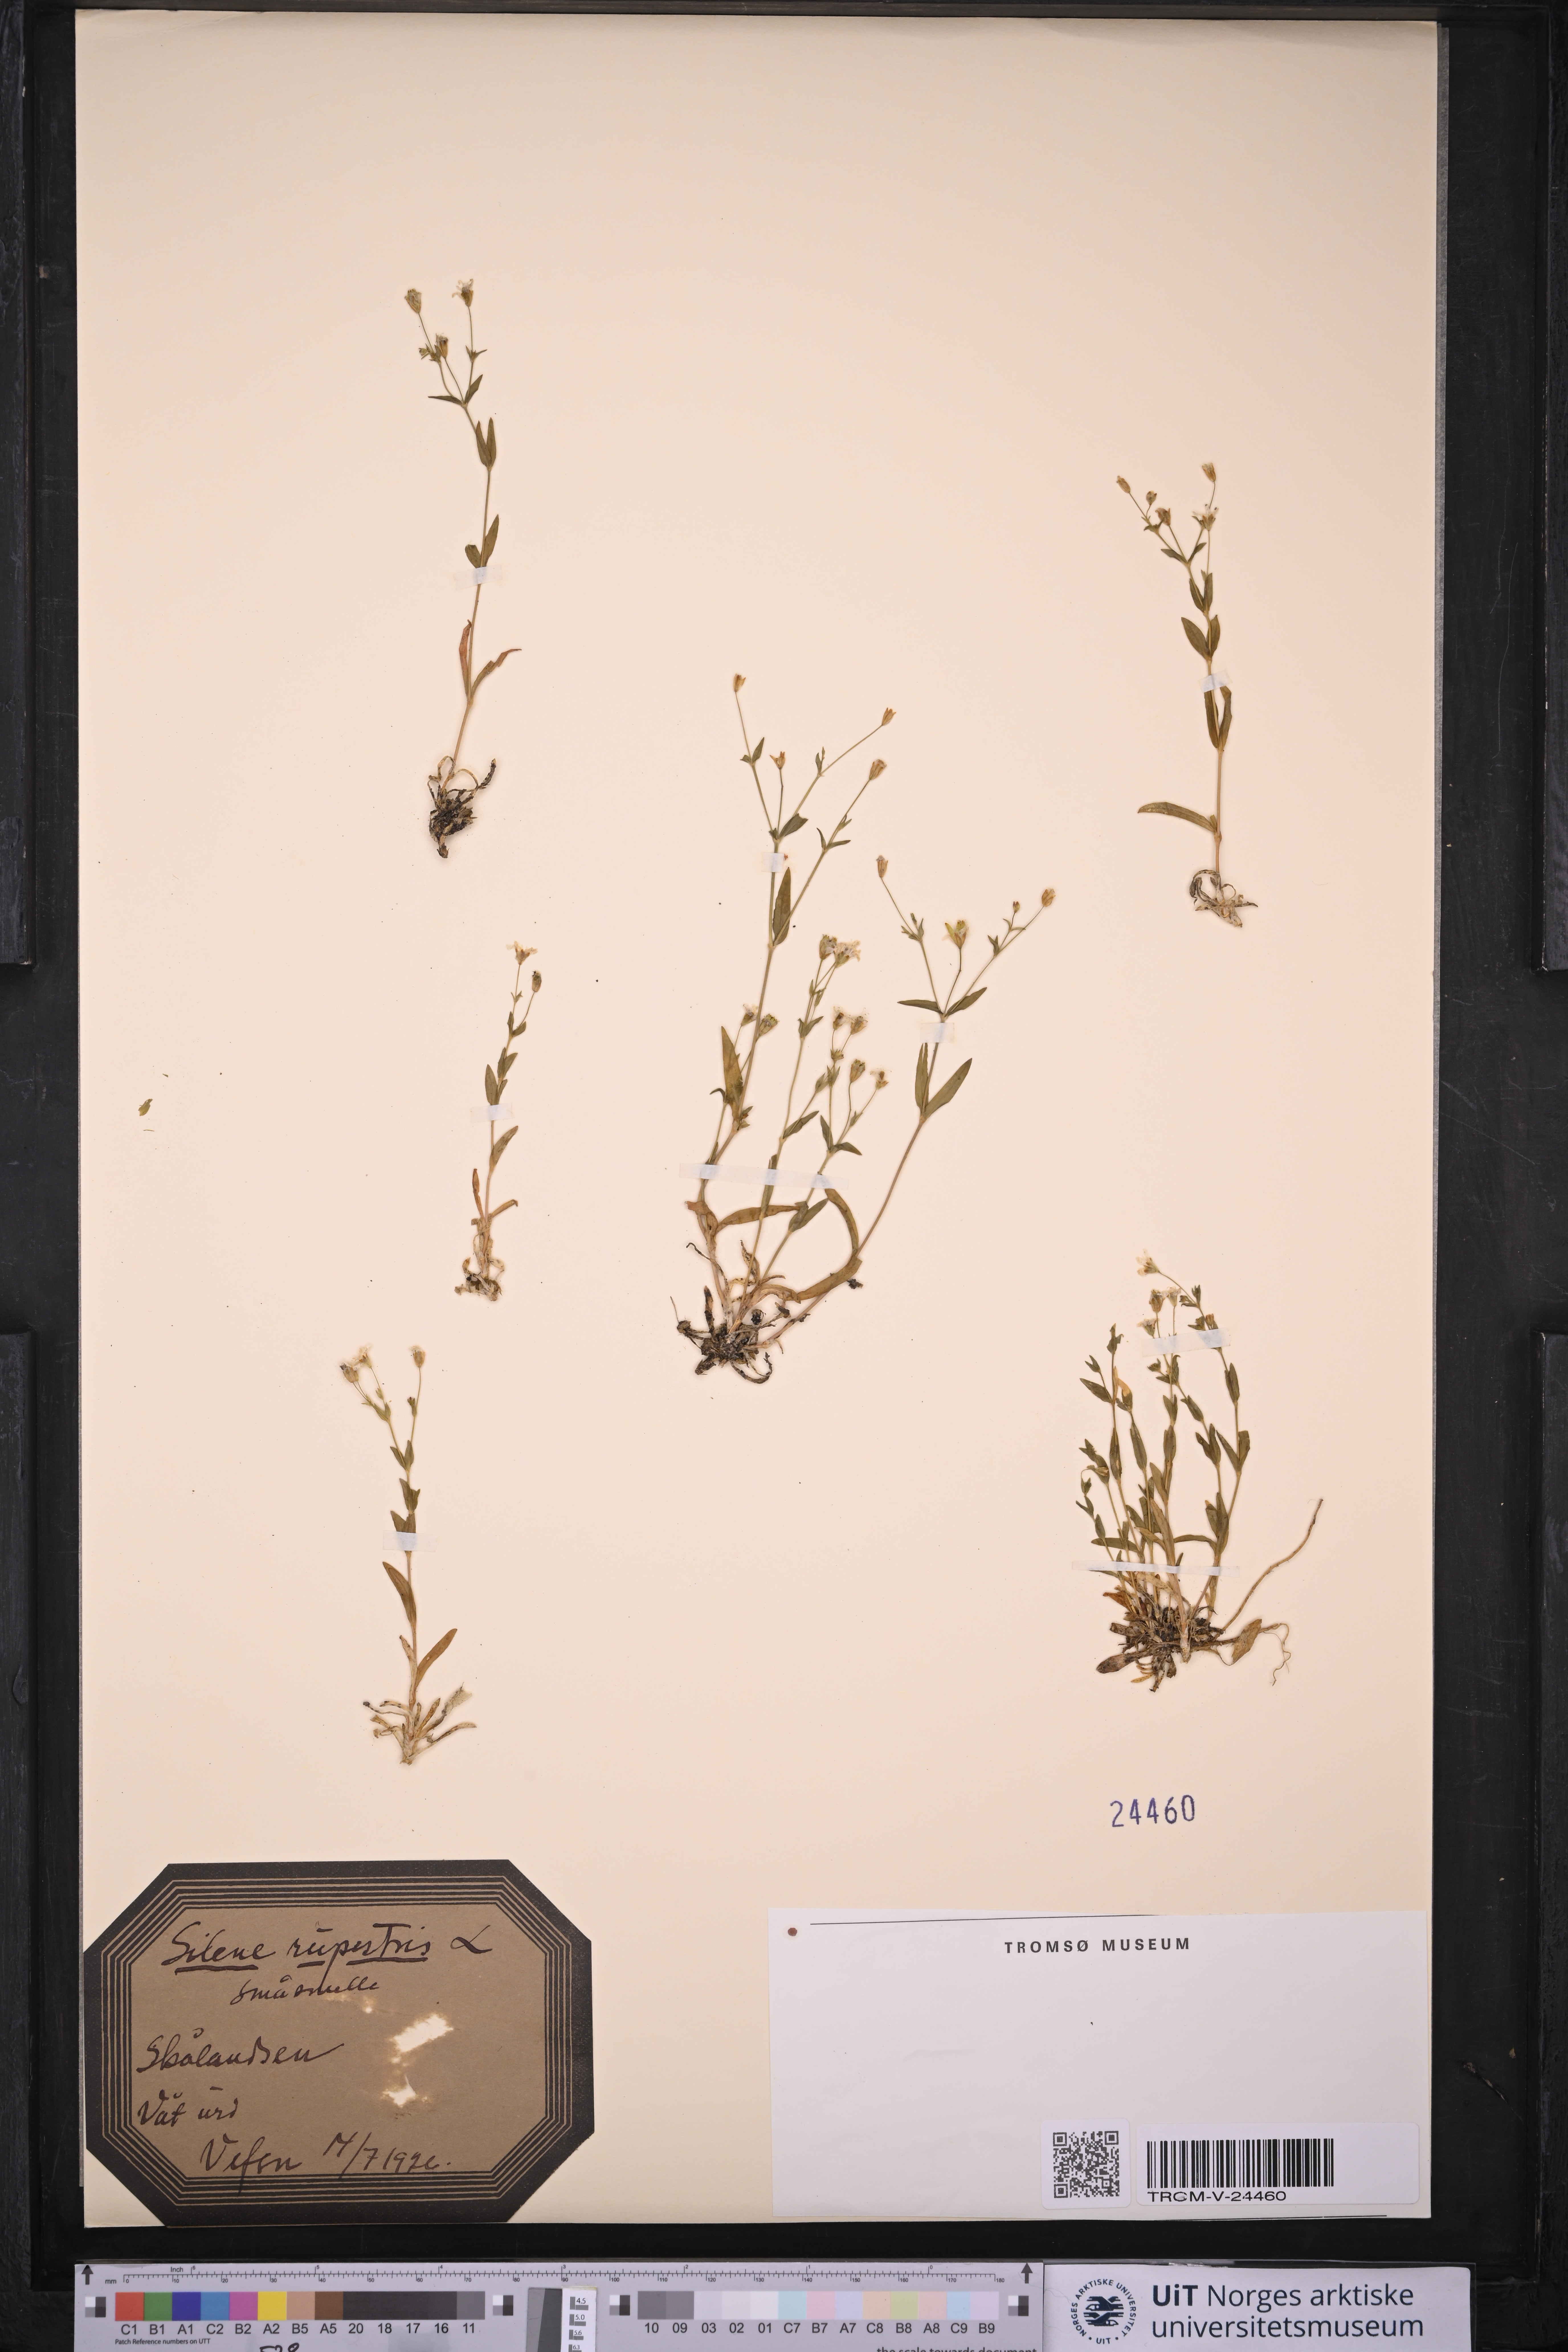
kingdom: Plantae
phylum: Tracheophyta
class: Magnoliopsida
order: Caryophyllales
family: Caryophyllaceae
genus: Atocion
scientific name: Atocion rupestre
